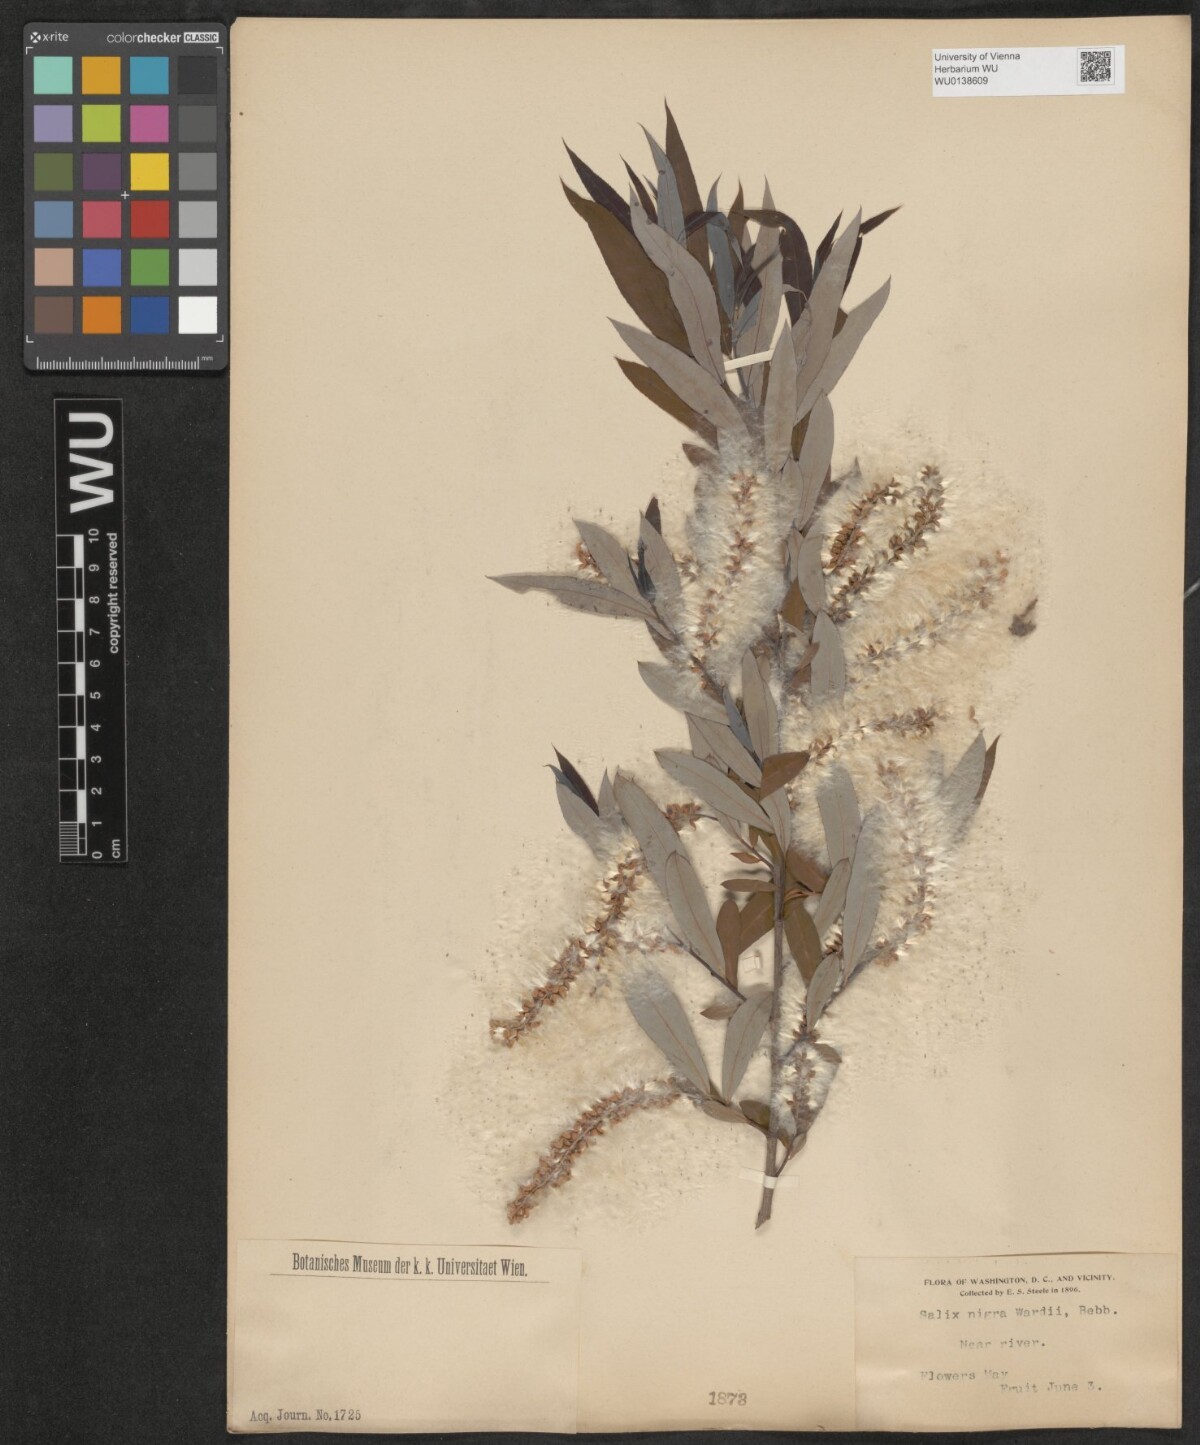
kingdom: Plantae
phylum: Tracheophyta
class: Magnoliopsida
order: Malpighiales
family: Salicaceae
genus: Salix
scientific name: Salix nigra
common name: Black willow
